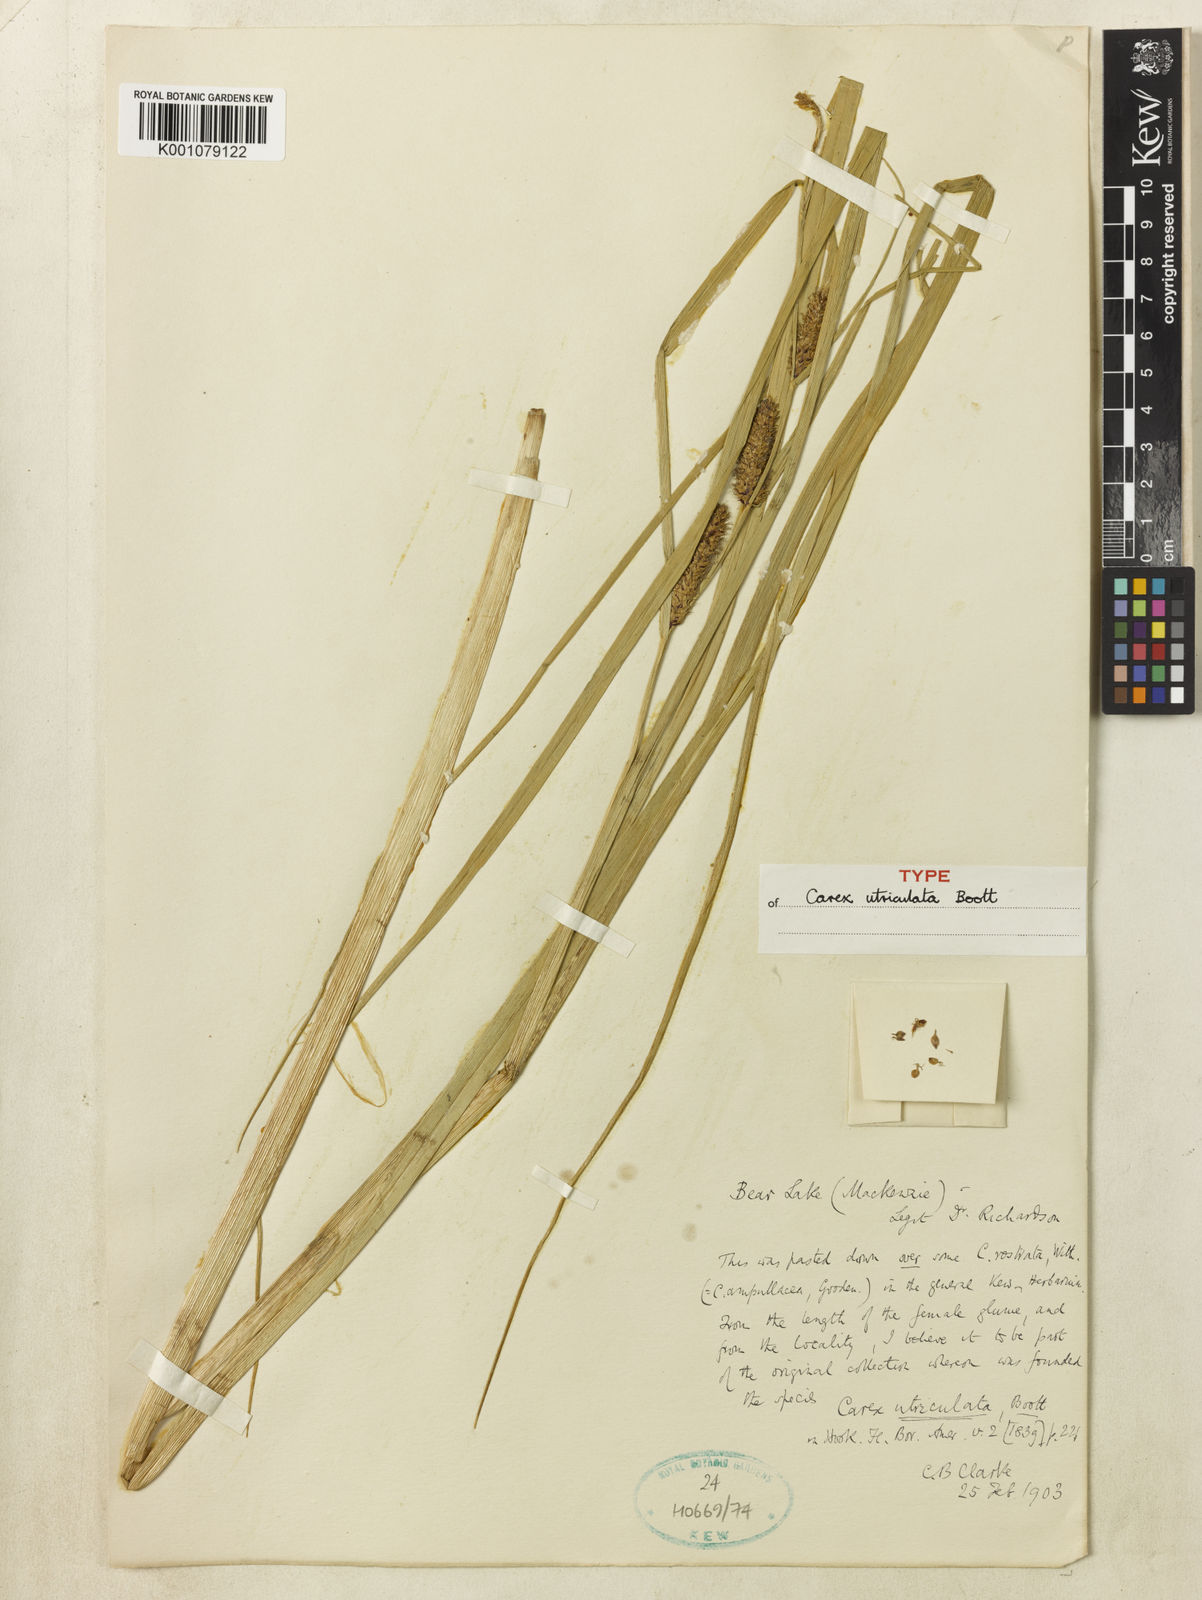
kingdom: Plantae
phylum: Tracheophyta
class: Liliopsida
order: Poales
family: Cyperaceae
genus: Carex
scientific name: Carex rostrata
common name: Bottle sedge
